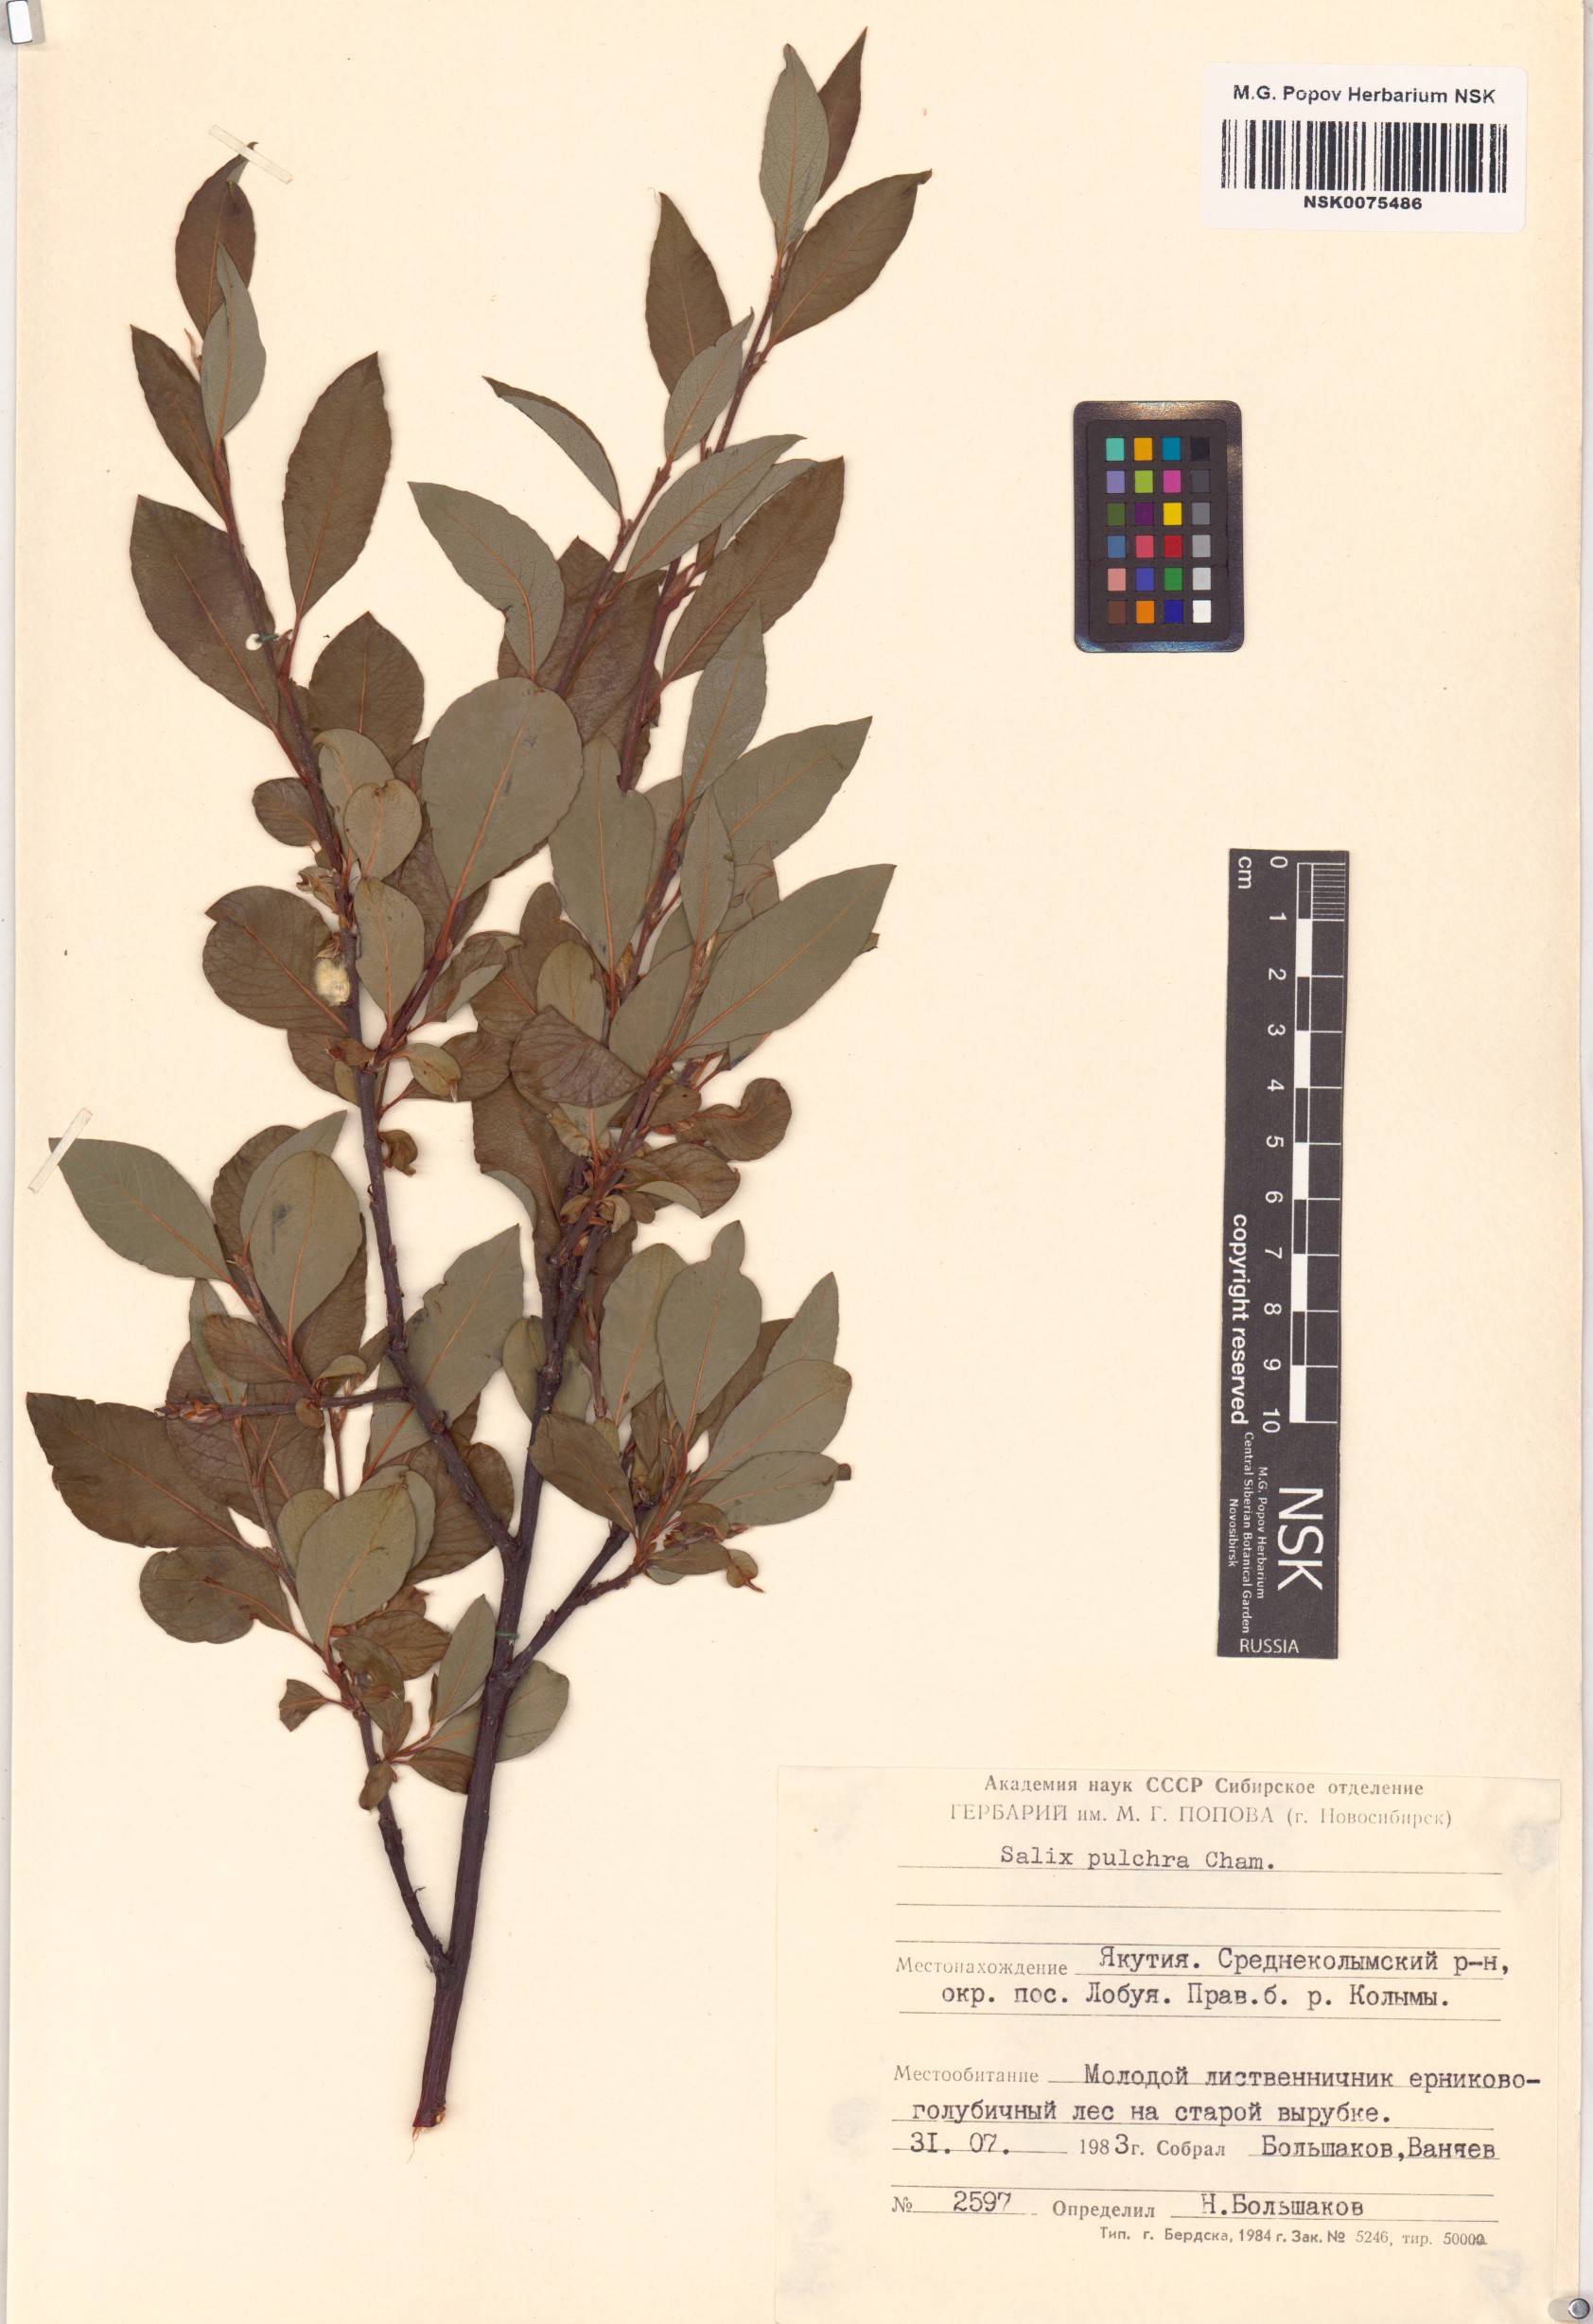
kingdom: Plantae
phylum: Tracheophyta
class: Magnoliopsida
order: Malpighiales
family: Salicaceae
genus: Salix
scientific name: Salix pulchra
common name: Diamond-leaved willow
